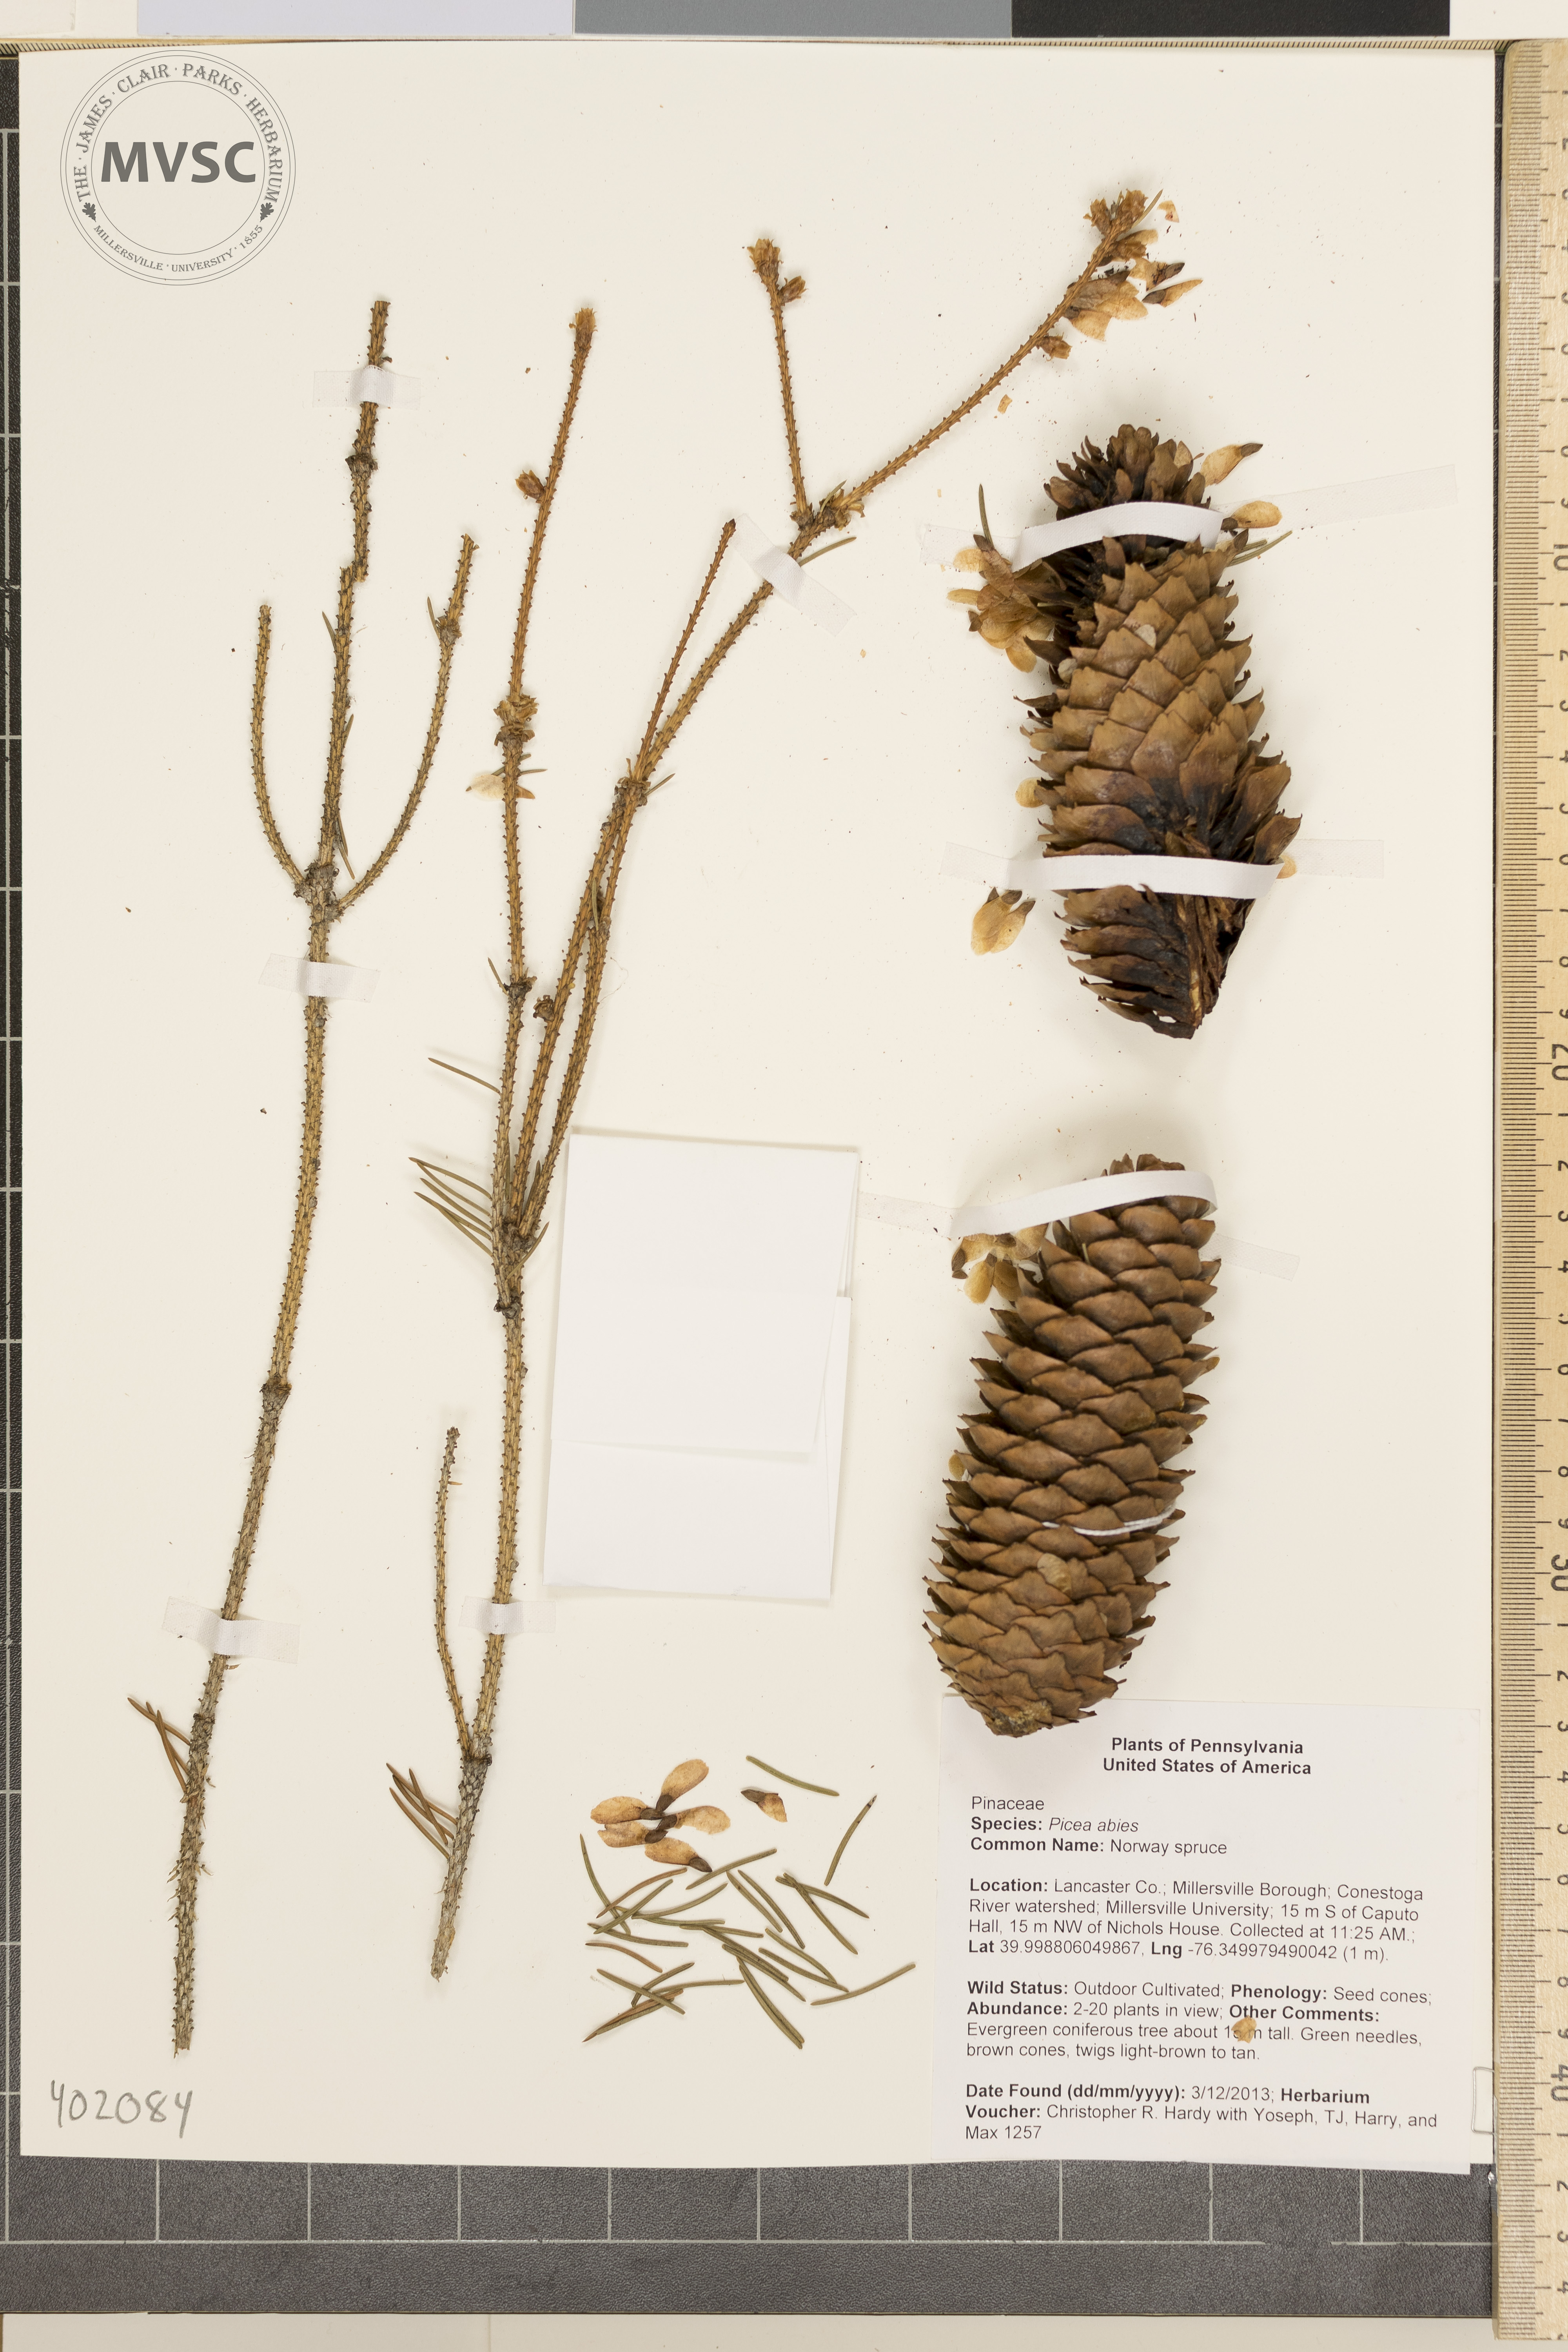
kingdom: Plantae
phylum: Tracheophyta
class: Pinopsida
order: Pinales
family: Pinaceae
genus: Picea
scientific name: Picea abies
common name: Norway spruce
